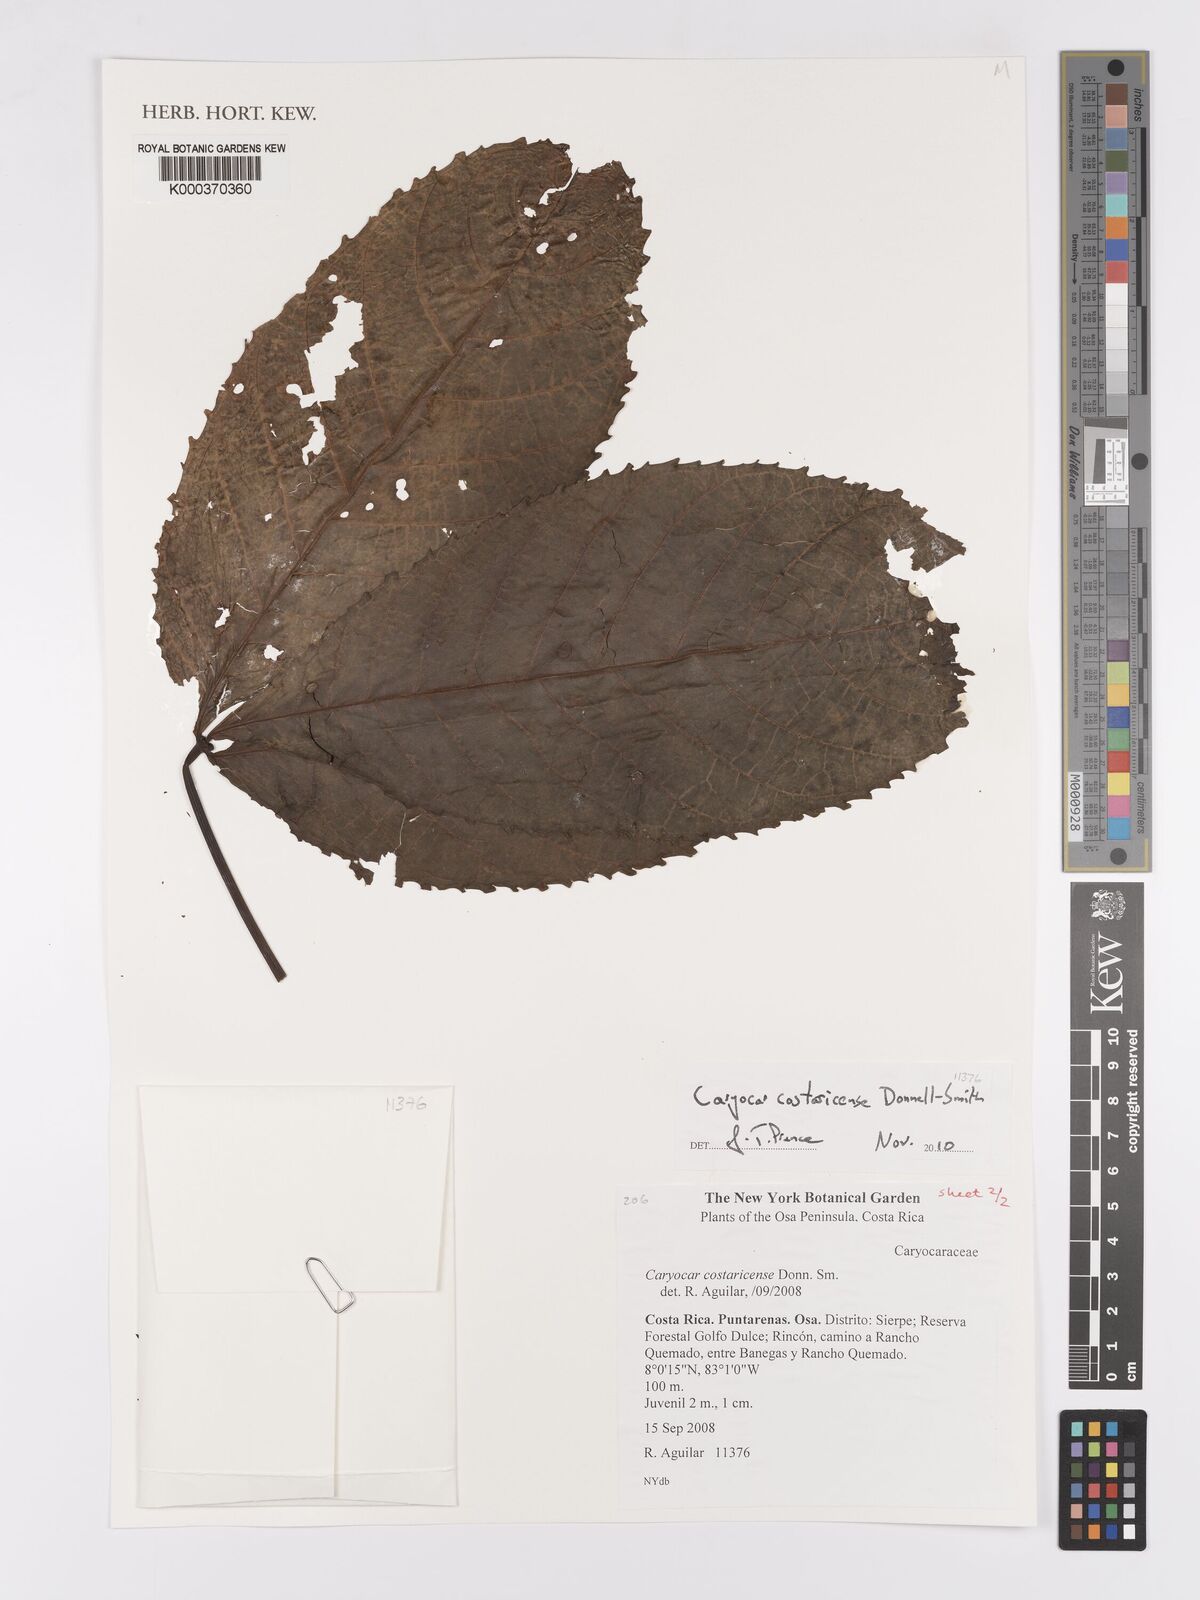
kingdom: Plantae
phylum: Tracheophyta
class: Magnoliopsida
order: Malpighiales
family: Chrysobalanaceae
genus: Parinari
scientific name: Parinari oblongifolia
